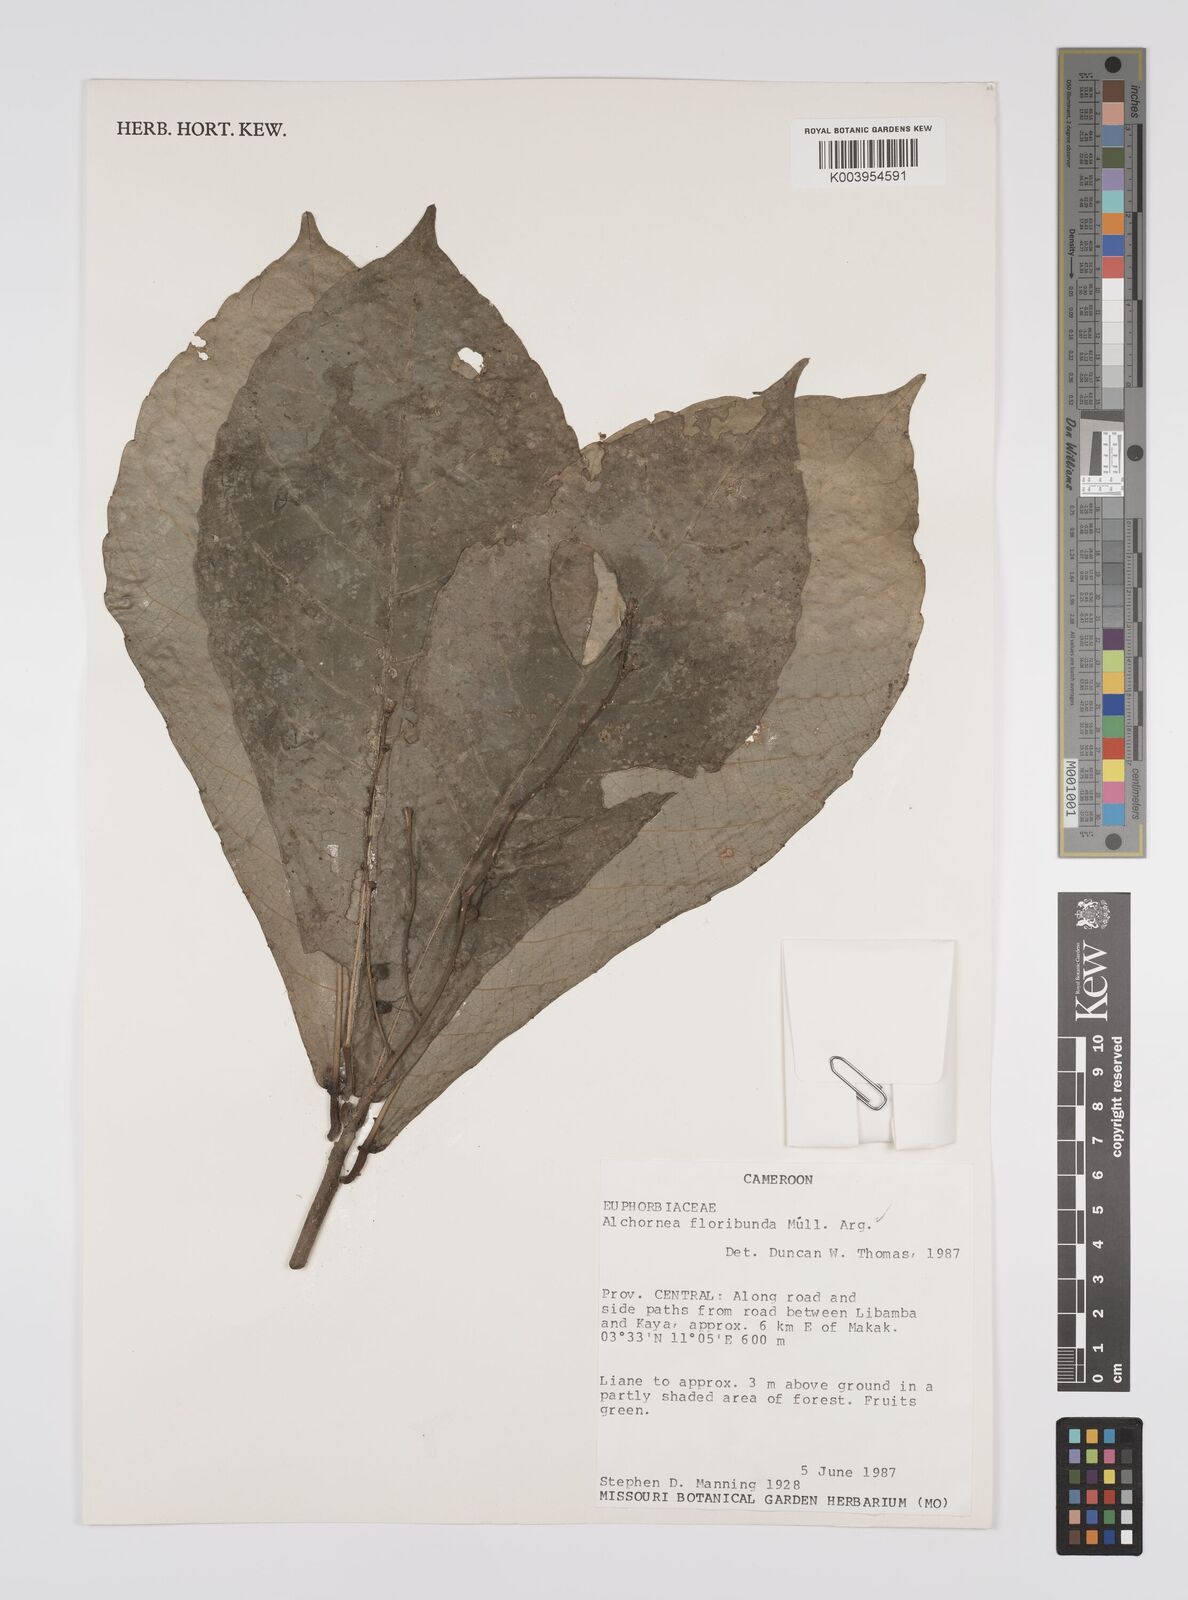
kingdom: Plantae
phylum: Tracheophyta
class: Magnoliopsida
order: Malpighiales
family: Euphorbiaceae
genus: Alchornea
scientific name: Alchornea floribunda
